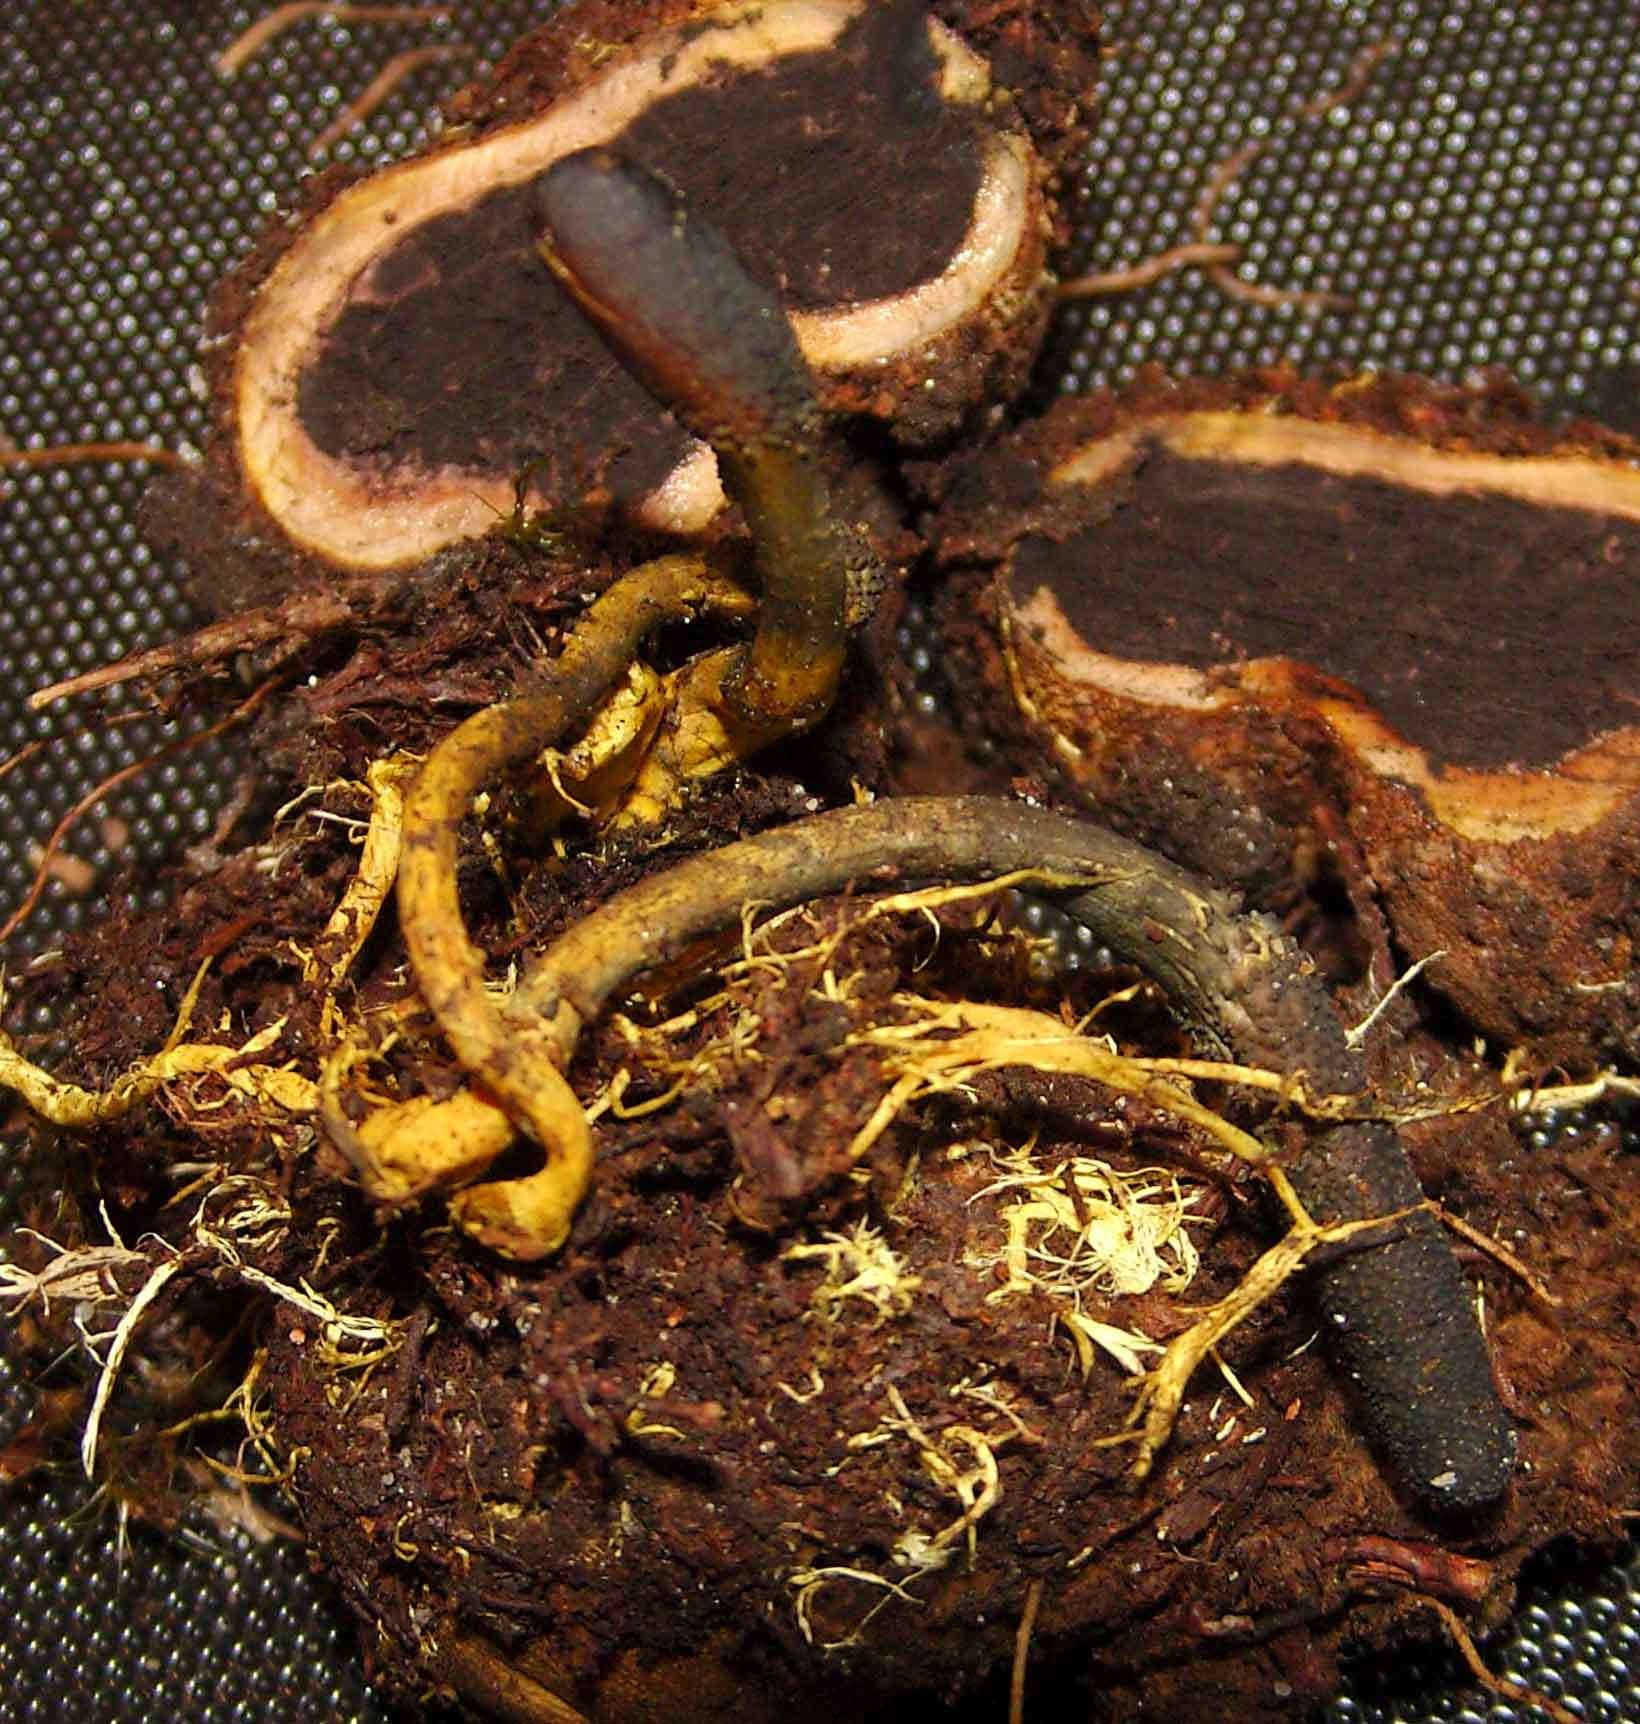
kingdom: Fungi
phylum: Ascomycota
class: Sordariomycetes
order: Hypocreales
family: Ophiocordycipitaceae
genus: Tolypocladium
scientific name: Tolypocladium ophioglossoides
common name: slank snyltekølle
